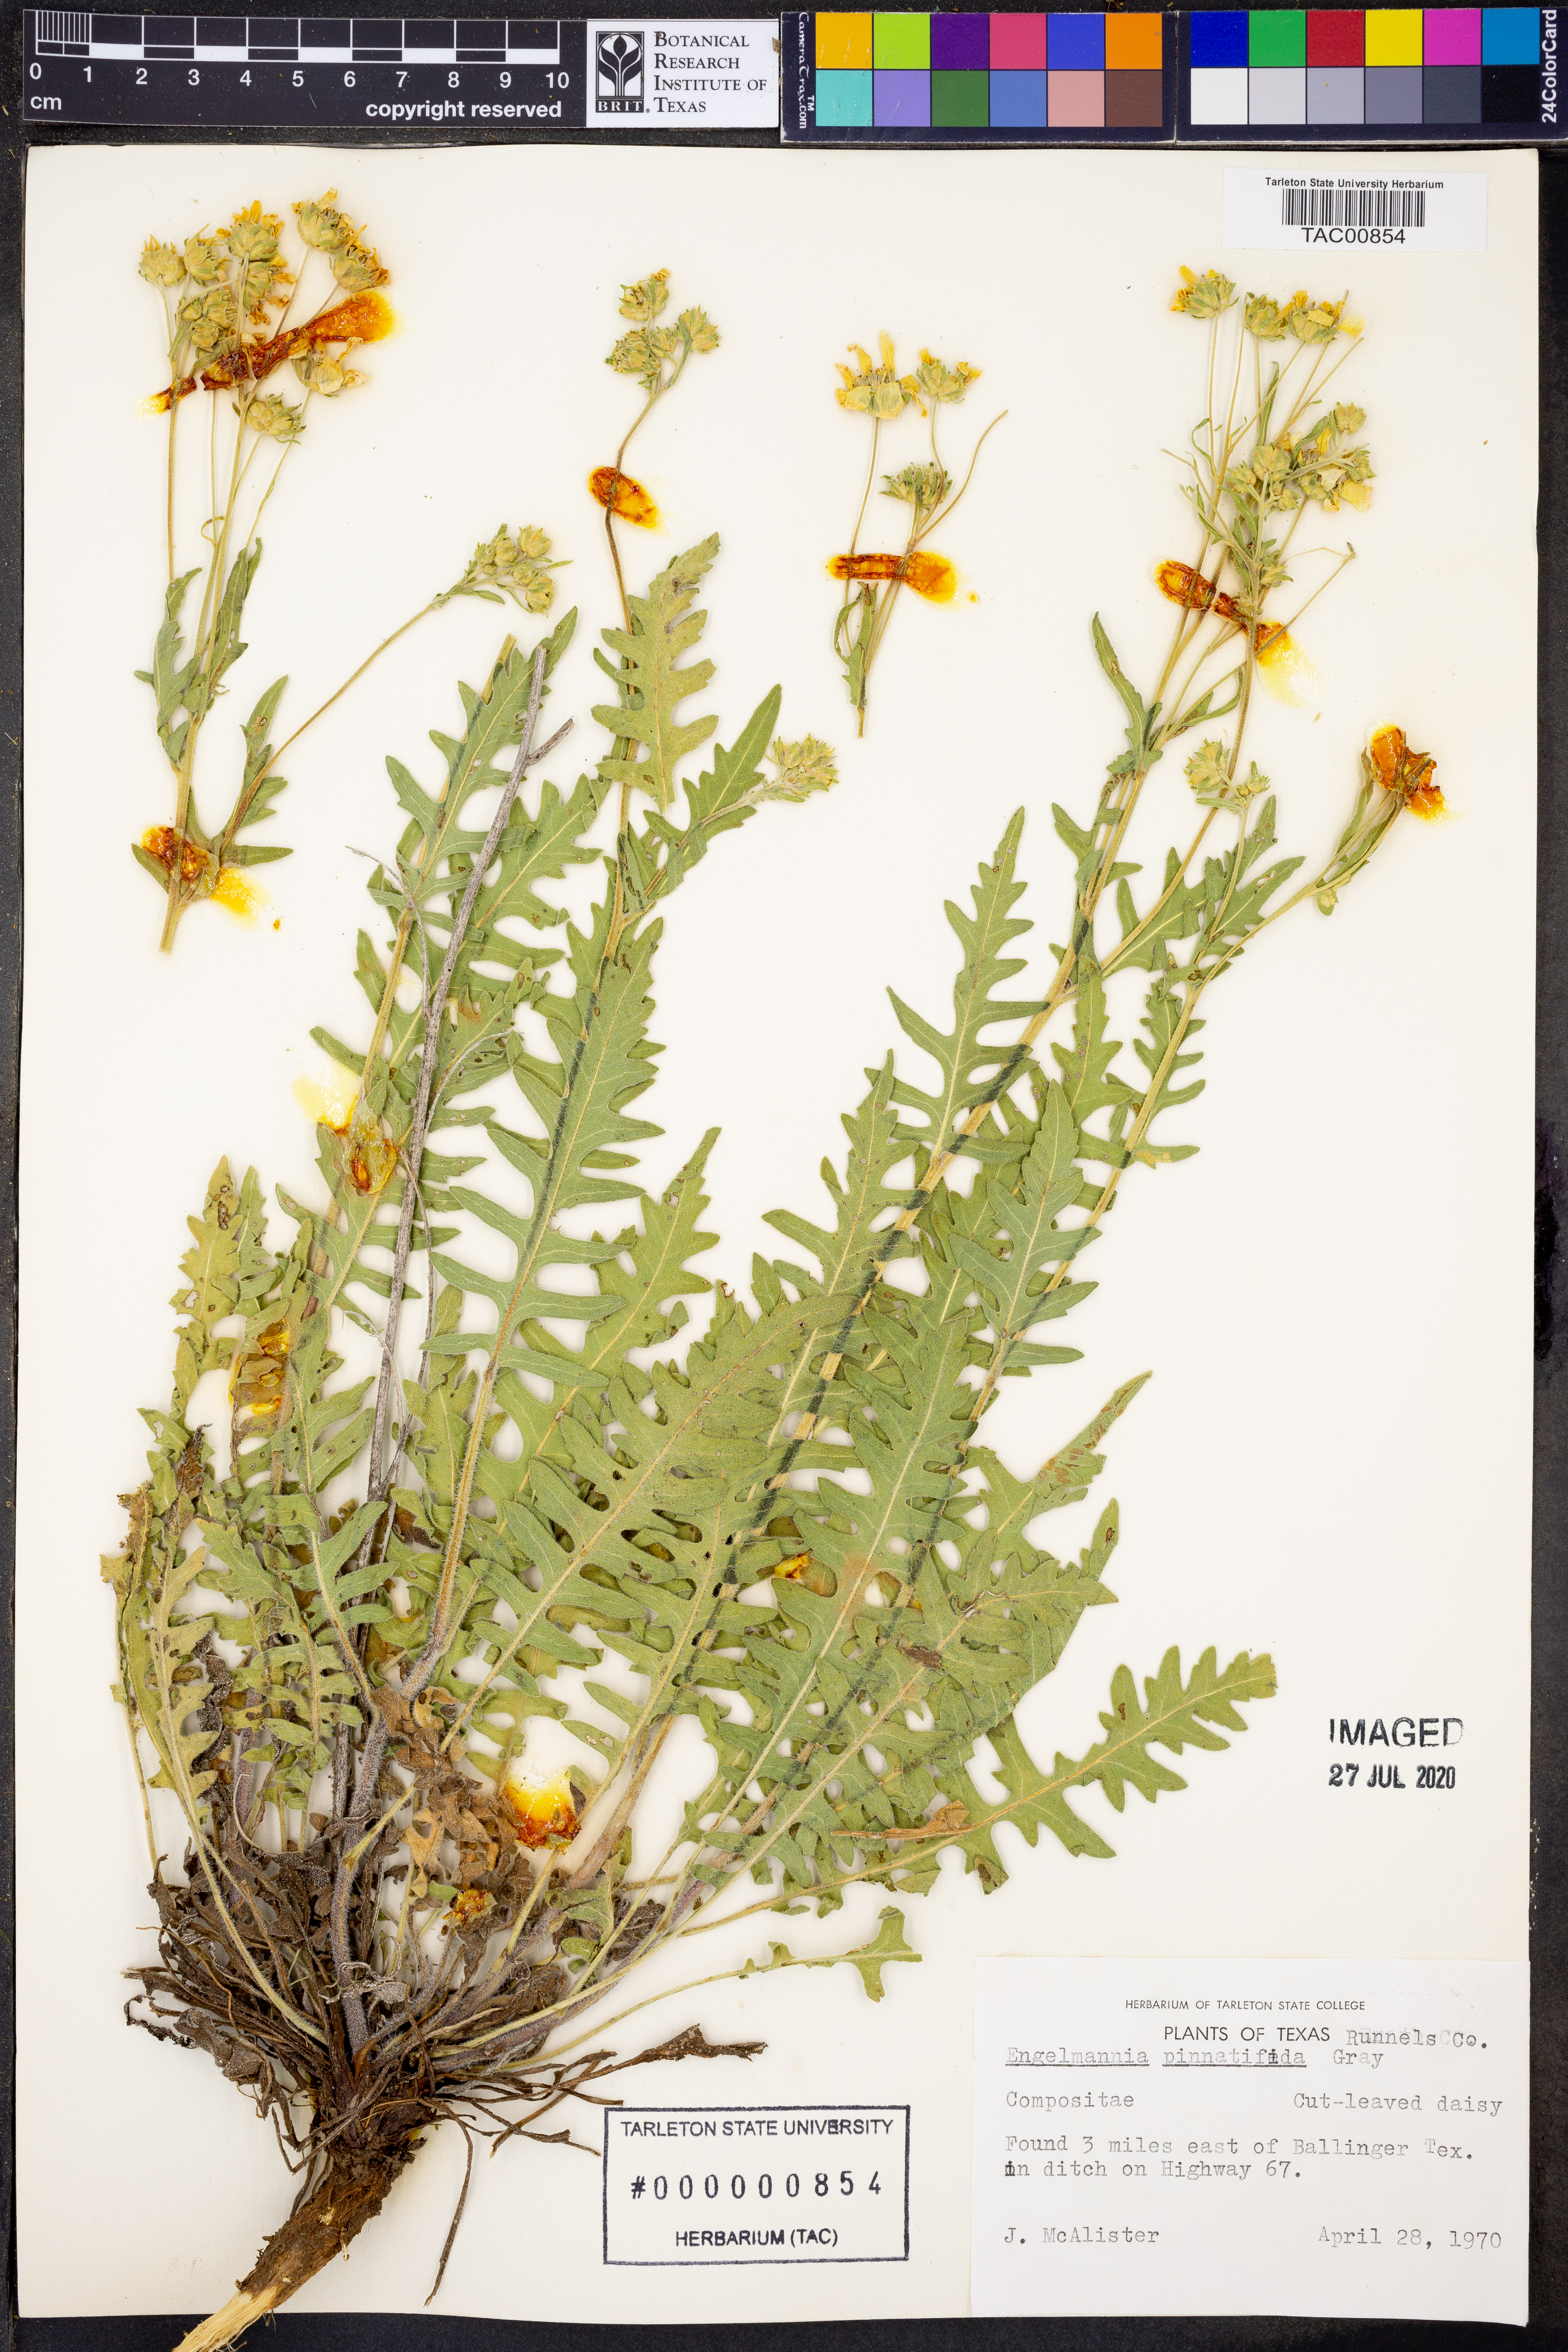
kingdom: Plantae
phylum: Tracheophyta
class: Magnoliopsida
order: Asterales
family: Asteraceae
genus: Engelmannia
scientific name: Engelmannia peristenia
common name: Engelmann's daisy
